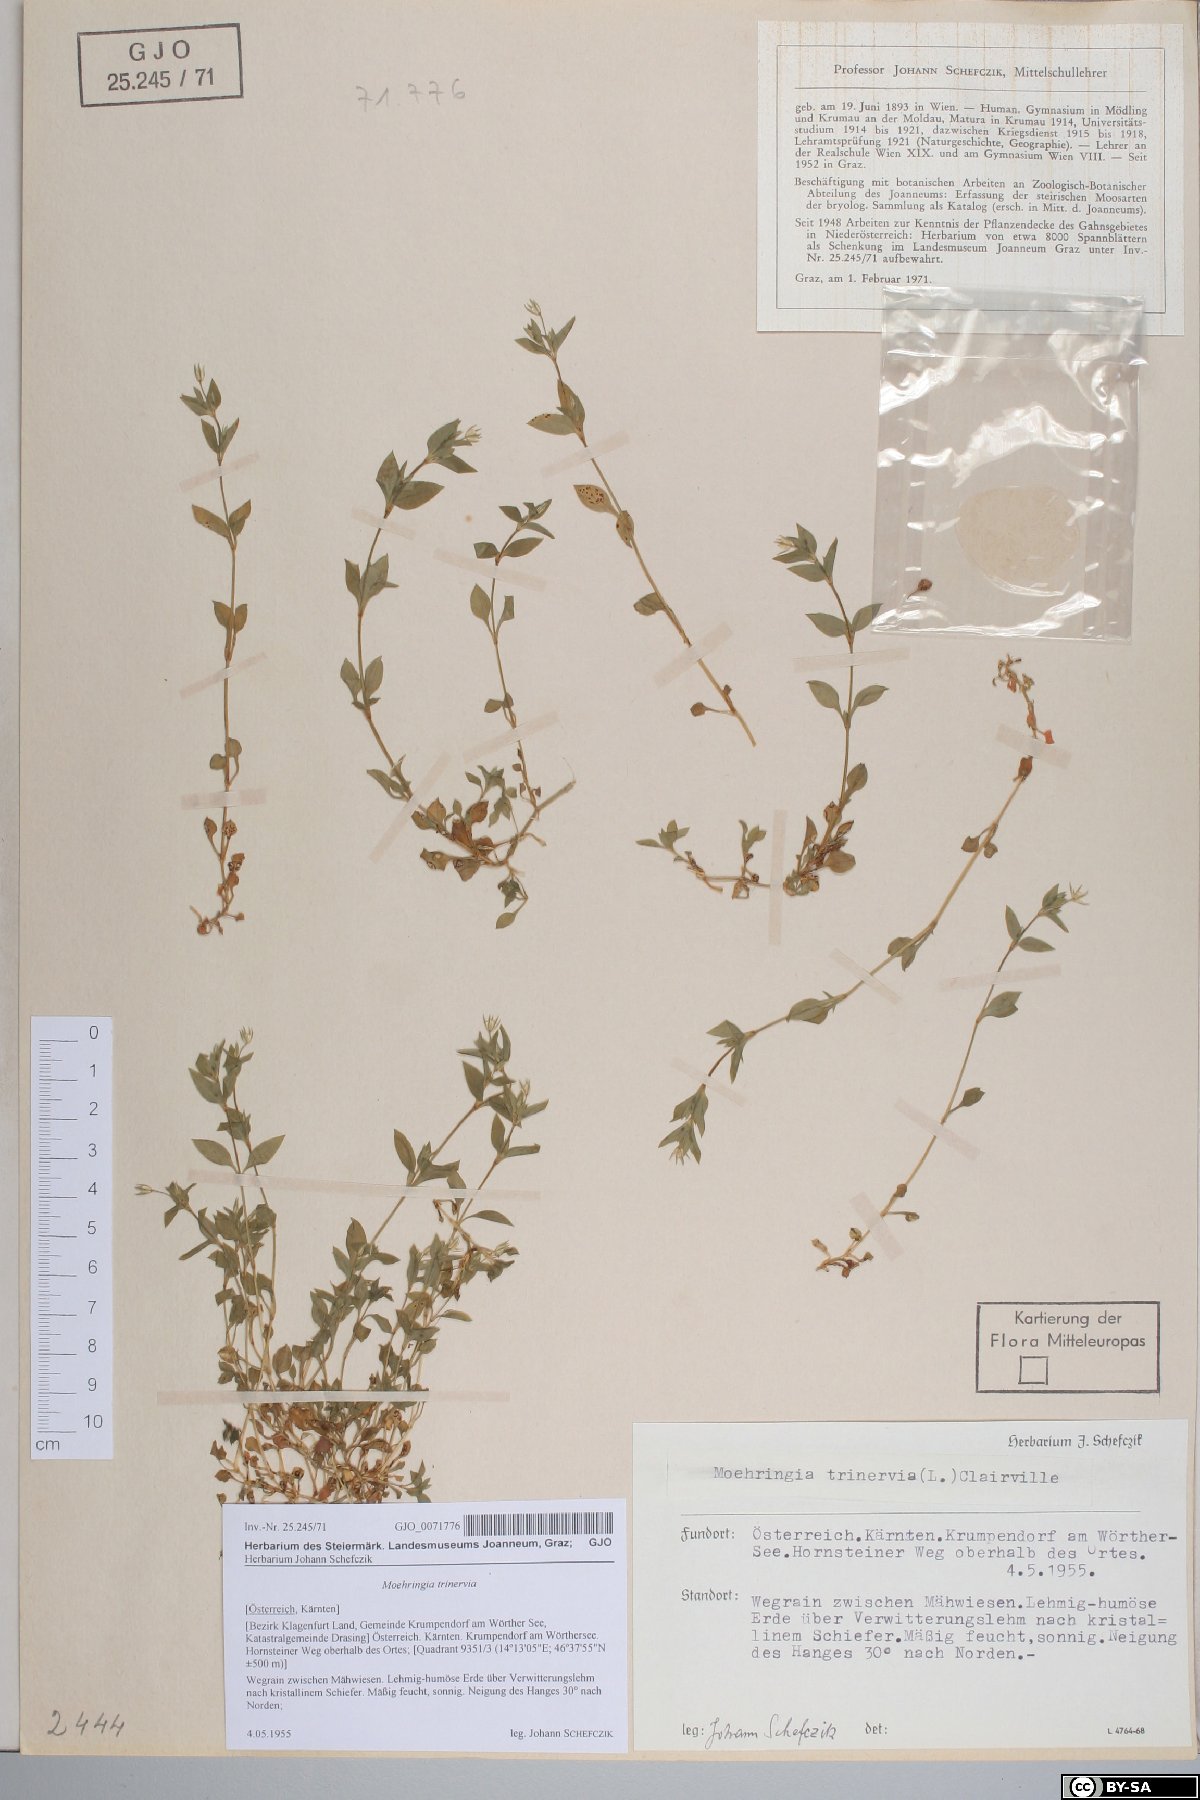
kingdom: Plantae
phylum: Tracheophyta
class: Magnoliopsida
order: Caryophyllales
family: Caryophyllaceae
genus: Moehringia
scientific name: Moehringia trinervia
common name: Three-nerved sandwort
